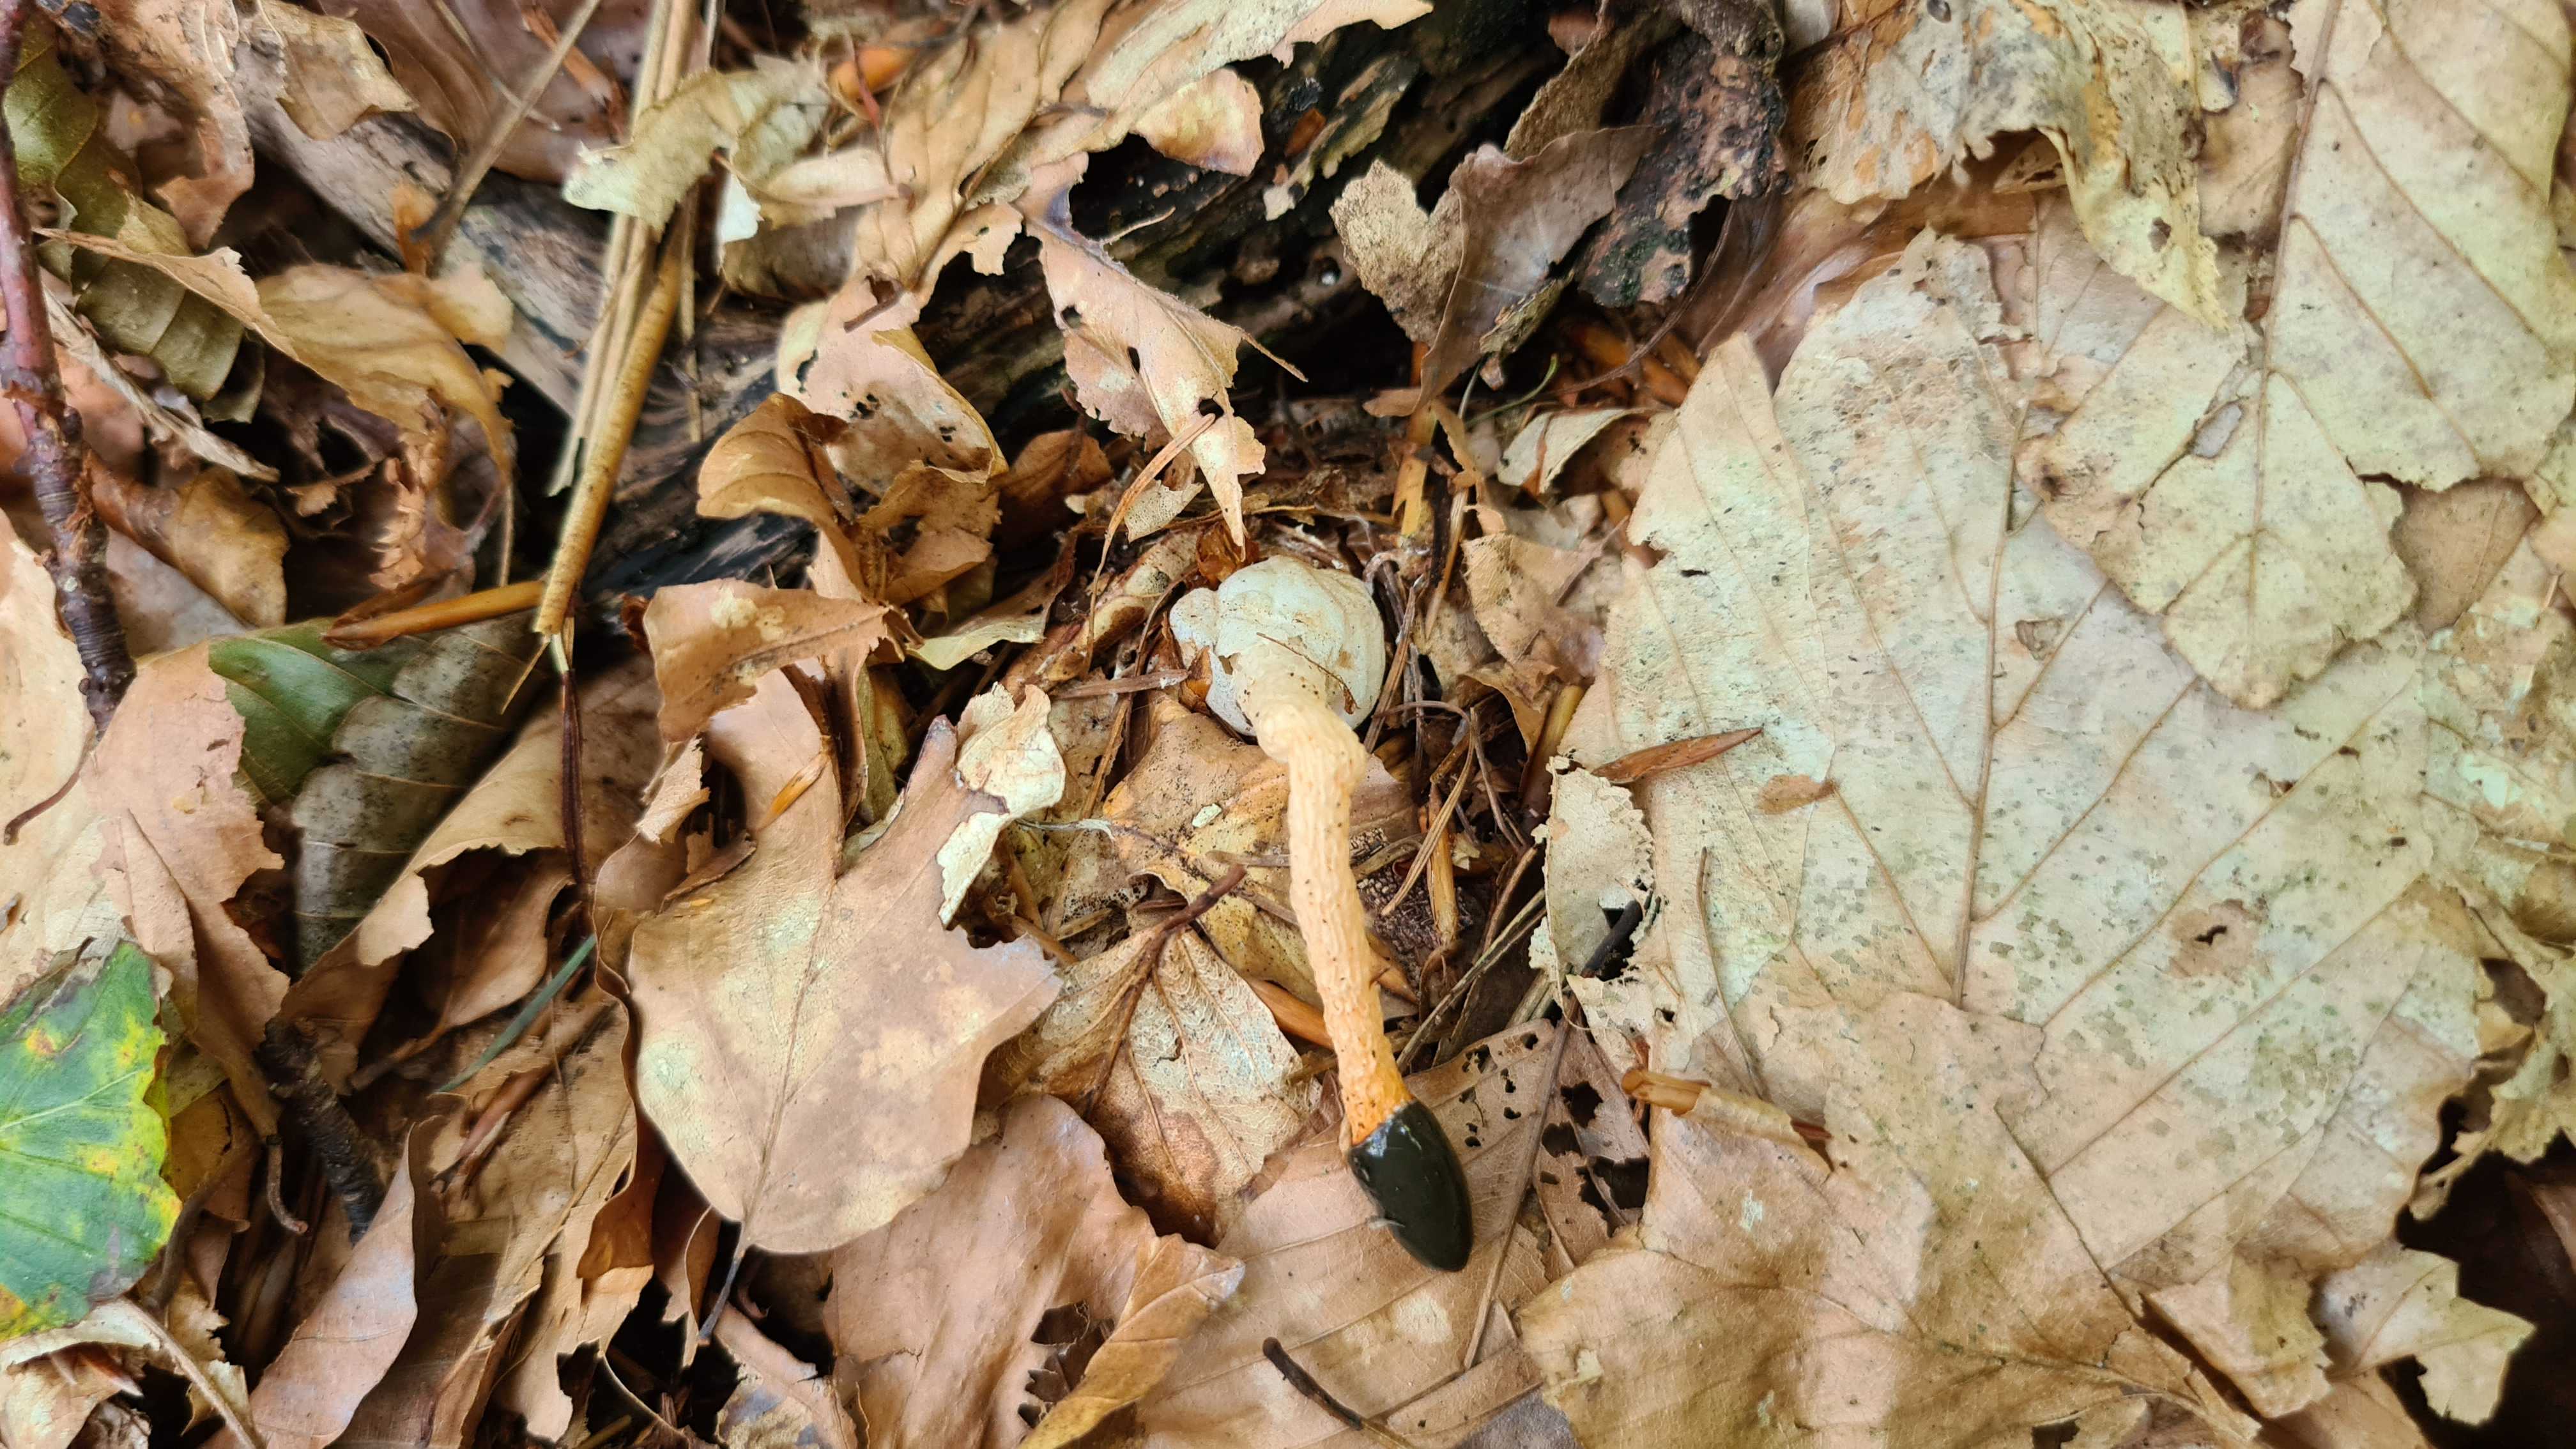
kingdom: Fungi
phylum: Basidiomycota
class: Agaricomycetes
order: Phallales
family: Phallaceae
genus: Mutinus
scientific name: Mutinus caninus
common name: hunde-stinksvamp
